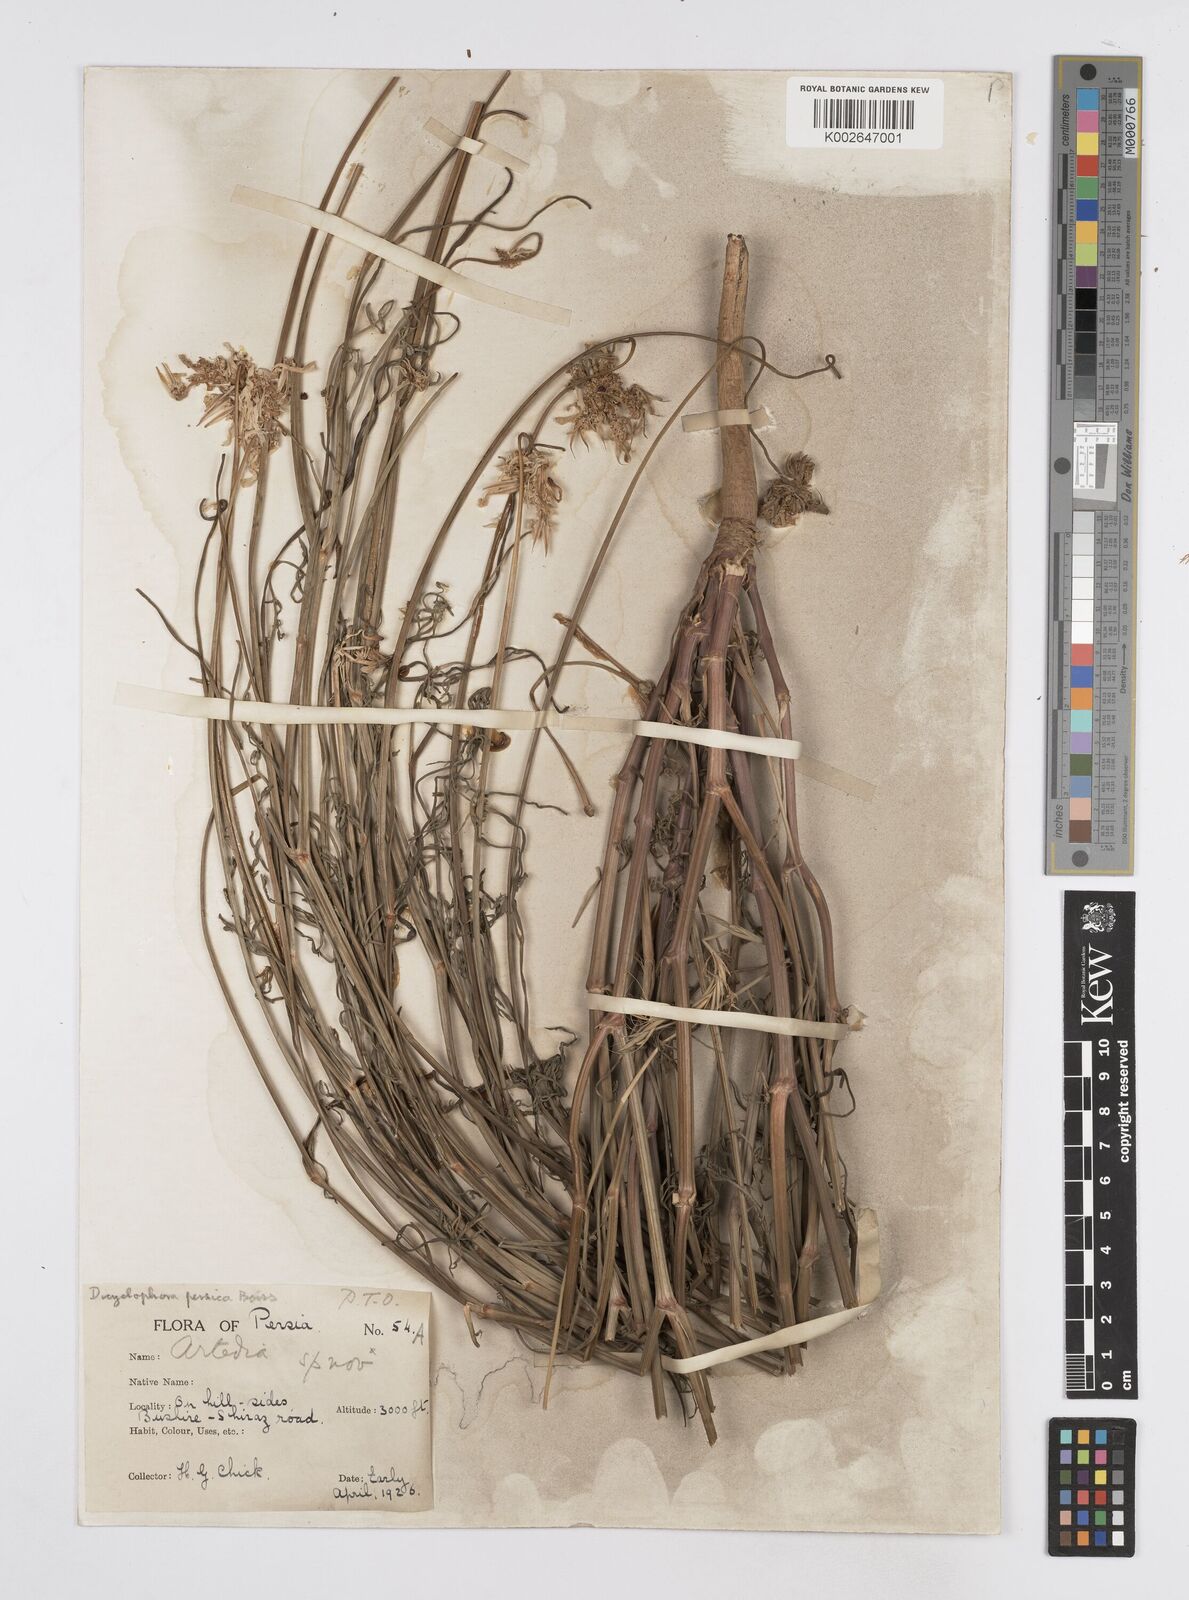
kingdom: Plantae
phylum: Tracheophyta
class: Magnoliopsida
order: Apiales
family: Apiaceae
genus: Dicyclophora
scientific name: Dicyclophora persica
